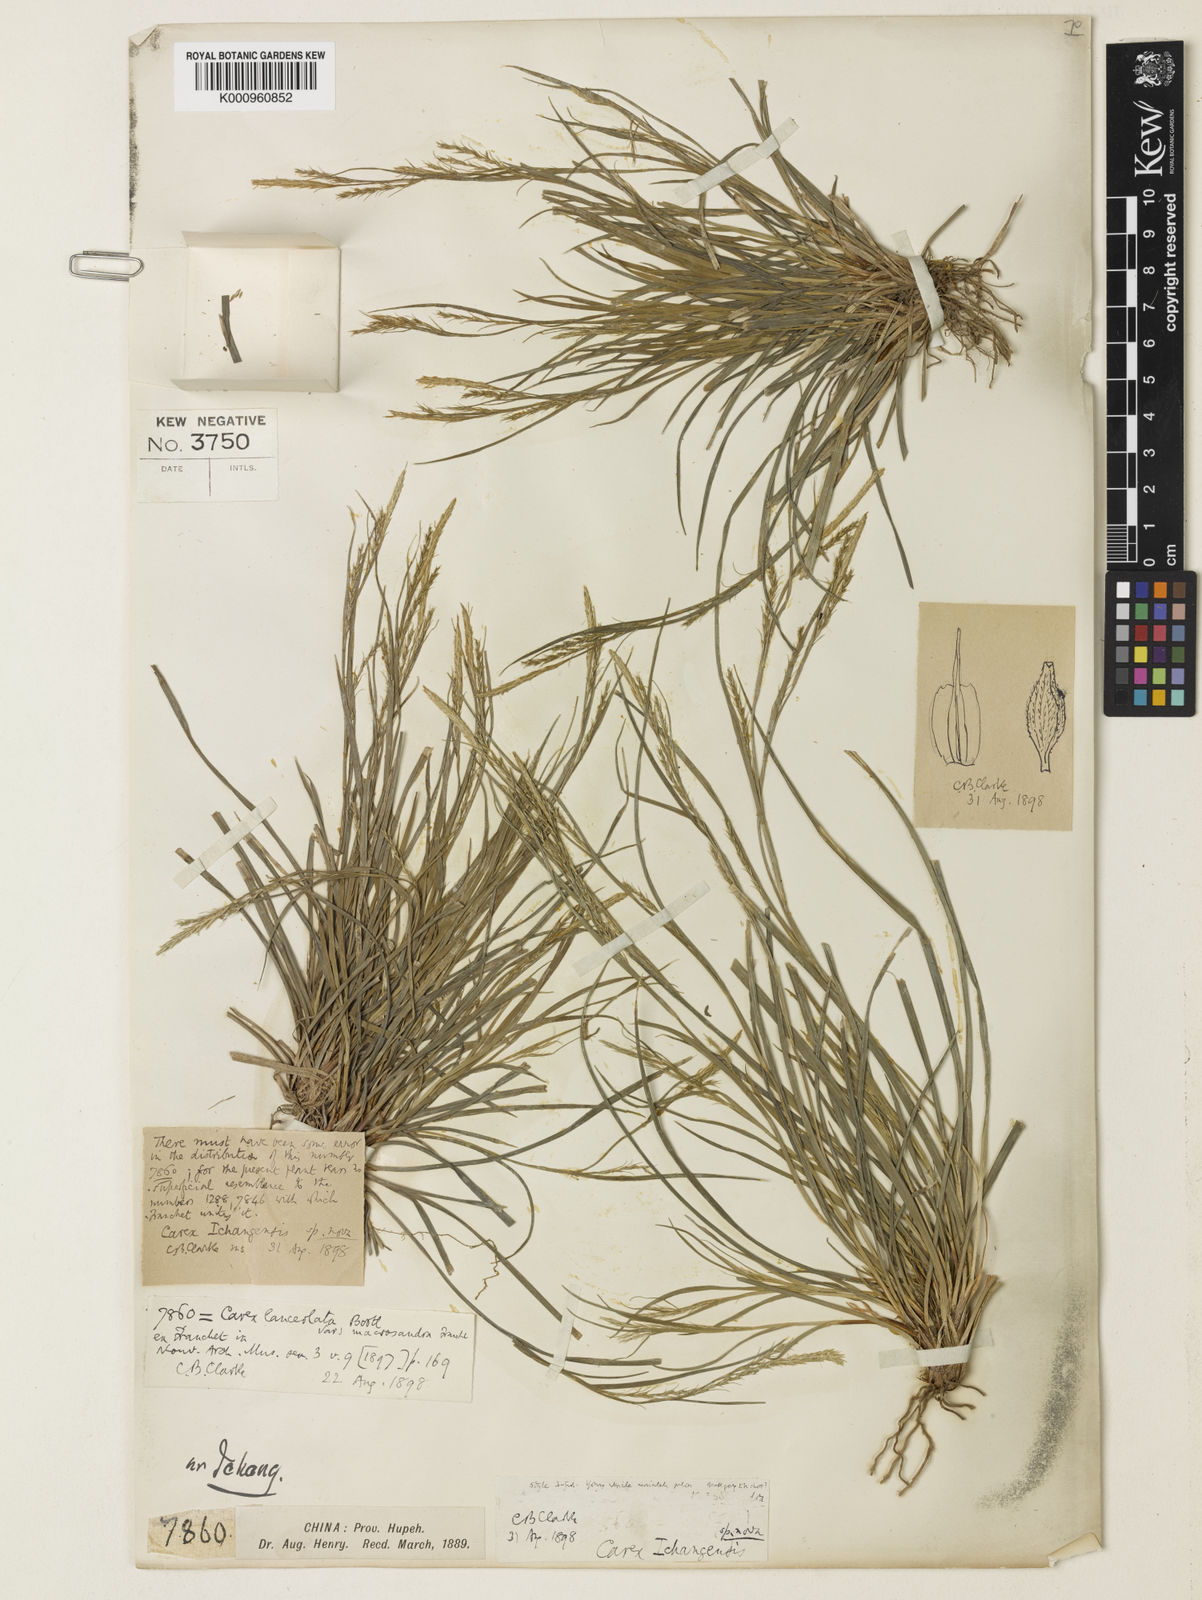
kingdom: Plantae
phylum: Tracheophyta
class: Liliopsida
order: Poales
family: Cyperaceae
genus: Carex
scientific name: Carex davidii
